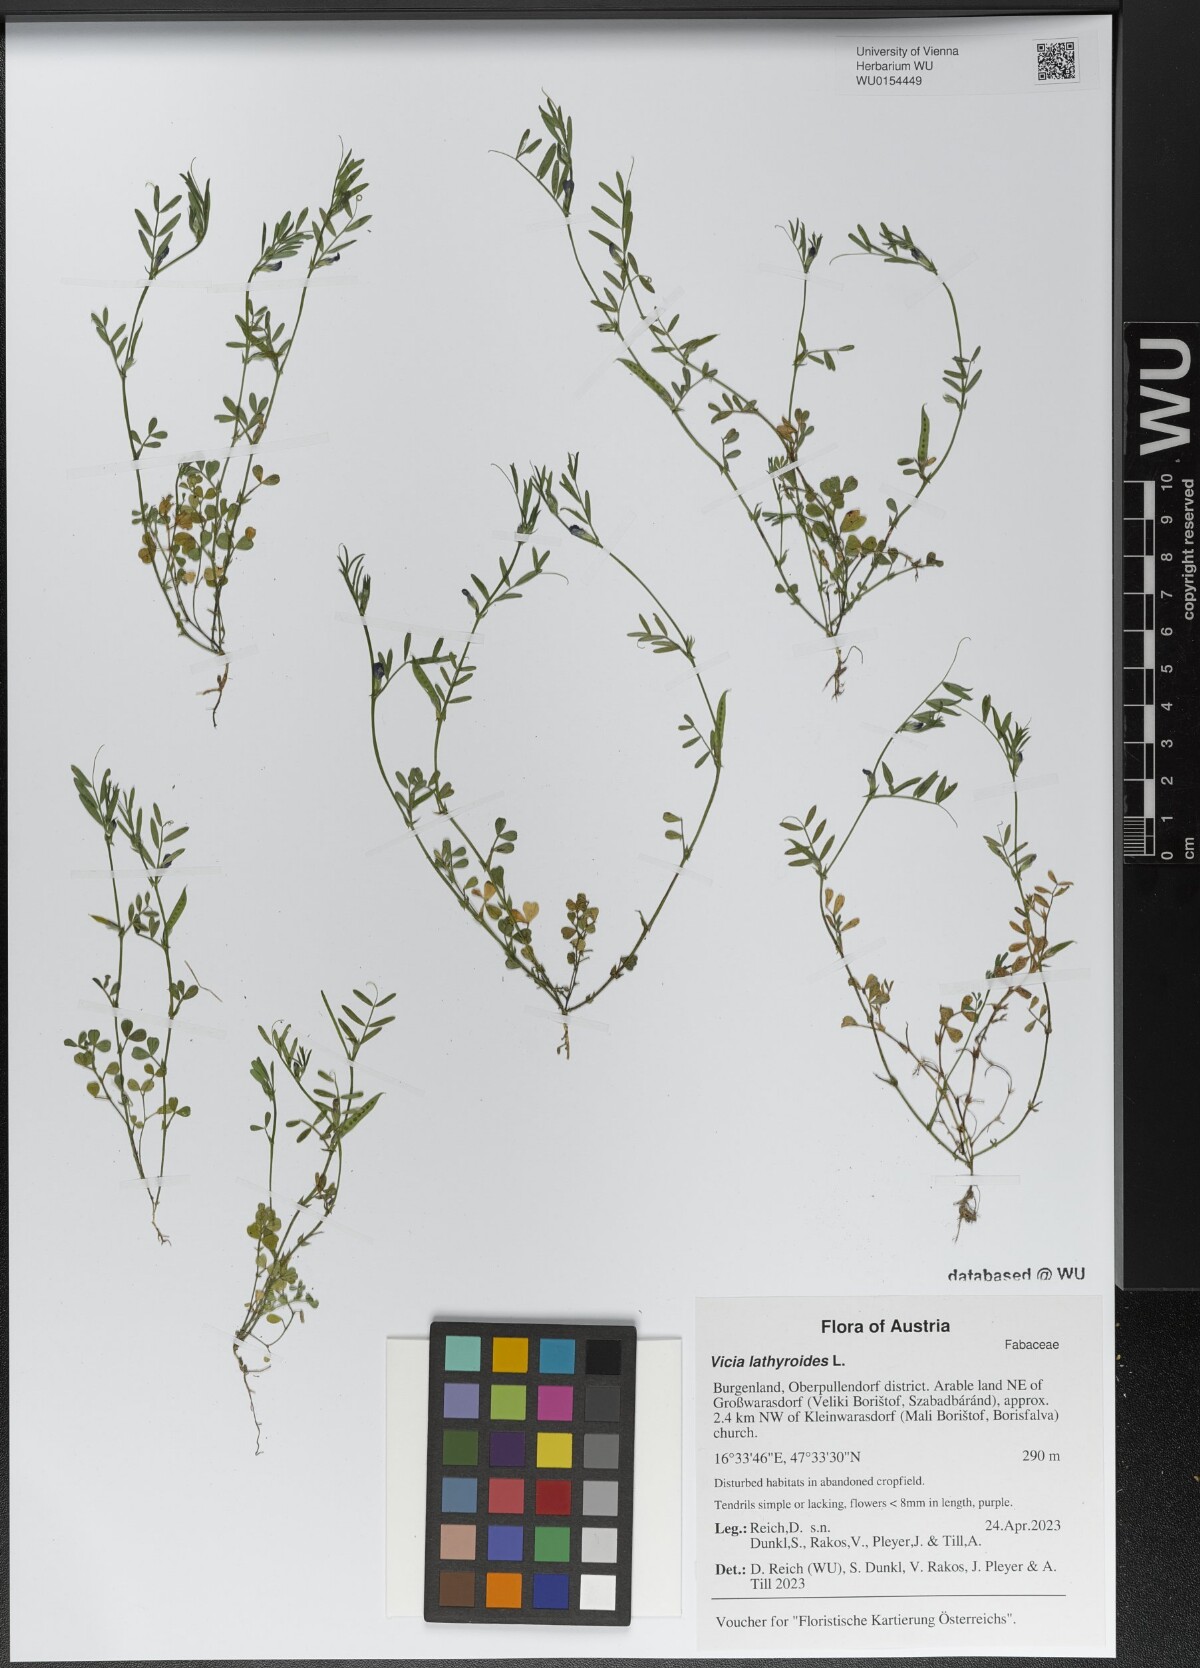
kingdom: Plantae
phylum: Tracheophyta
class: Magnoliopsida
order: Fabales
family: Fabaceae
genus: Vicia
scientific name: Vicia lathyroides
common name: Spring vetch
